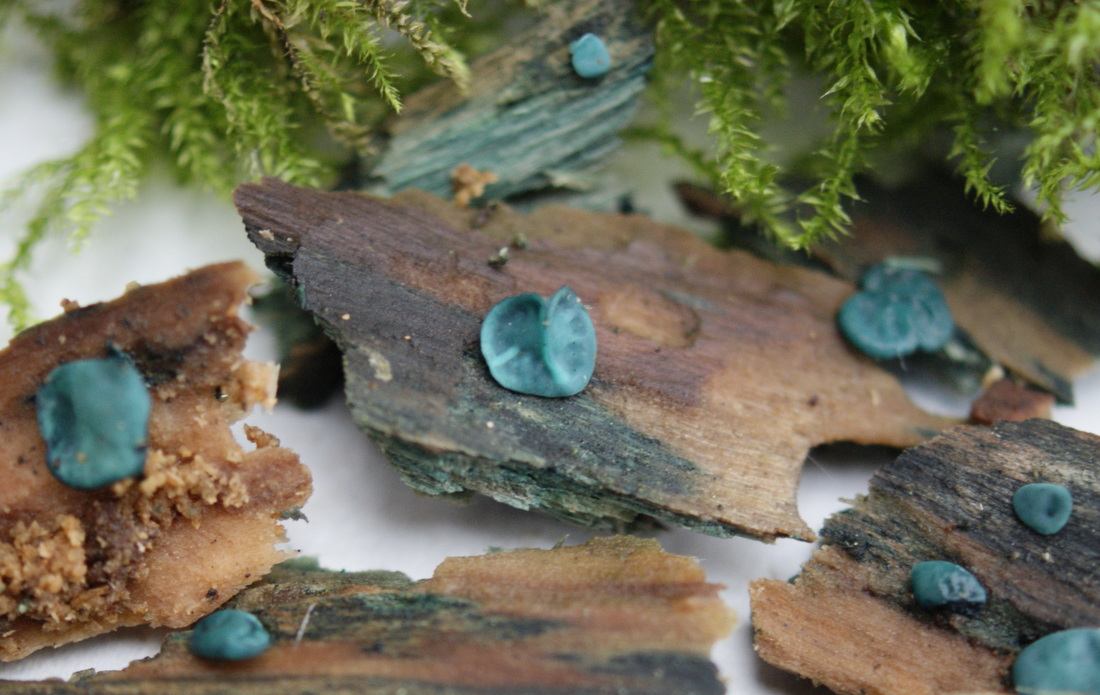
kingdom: Fungi
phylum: Ascomycota
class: Leotiomycetes
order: Helotiales
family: Chlorociboriaceae
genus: Chlorociboria
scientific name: Chlorociboria aeruginascens
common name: almindelig grønskive
